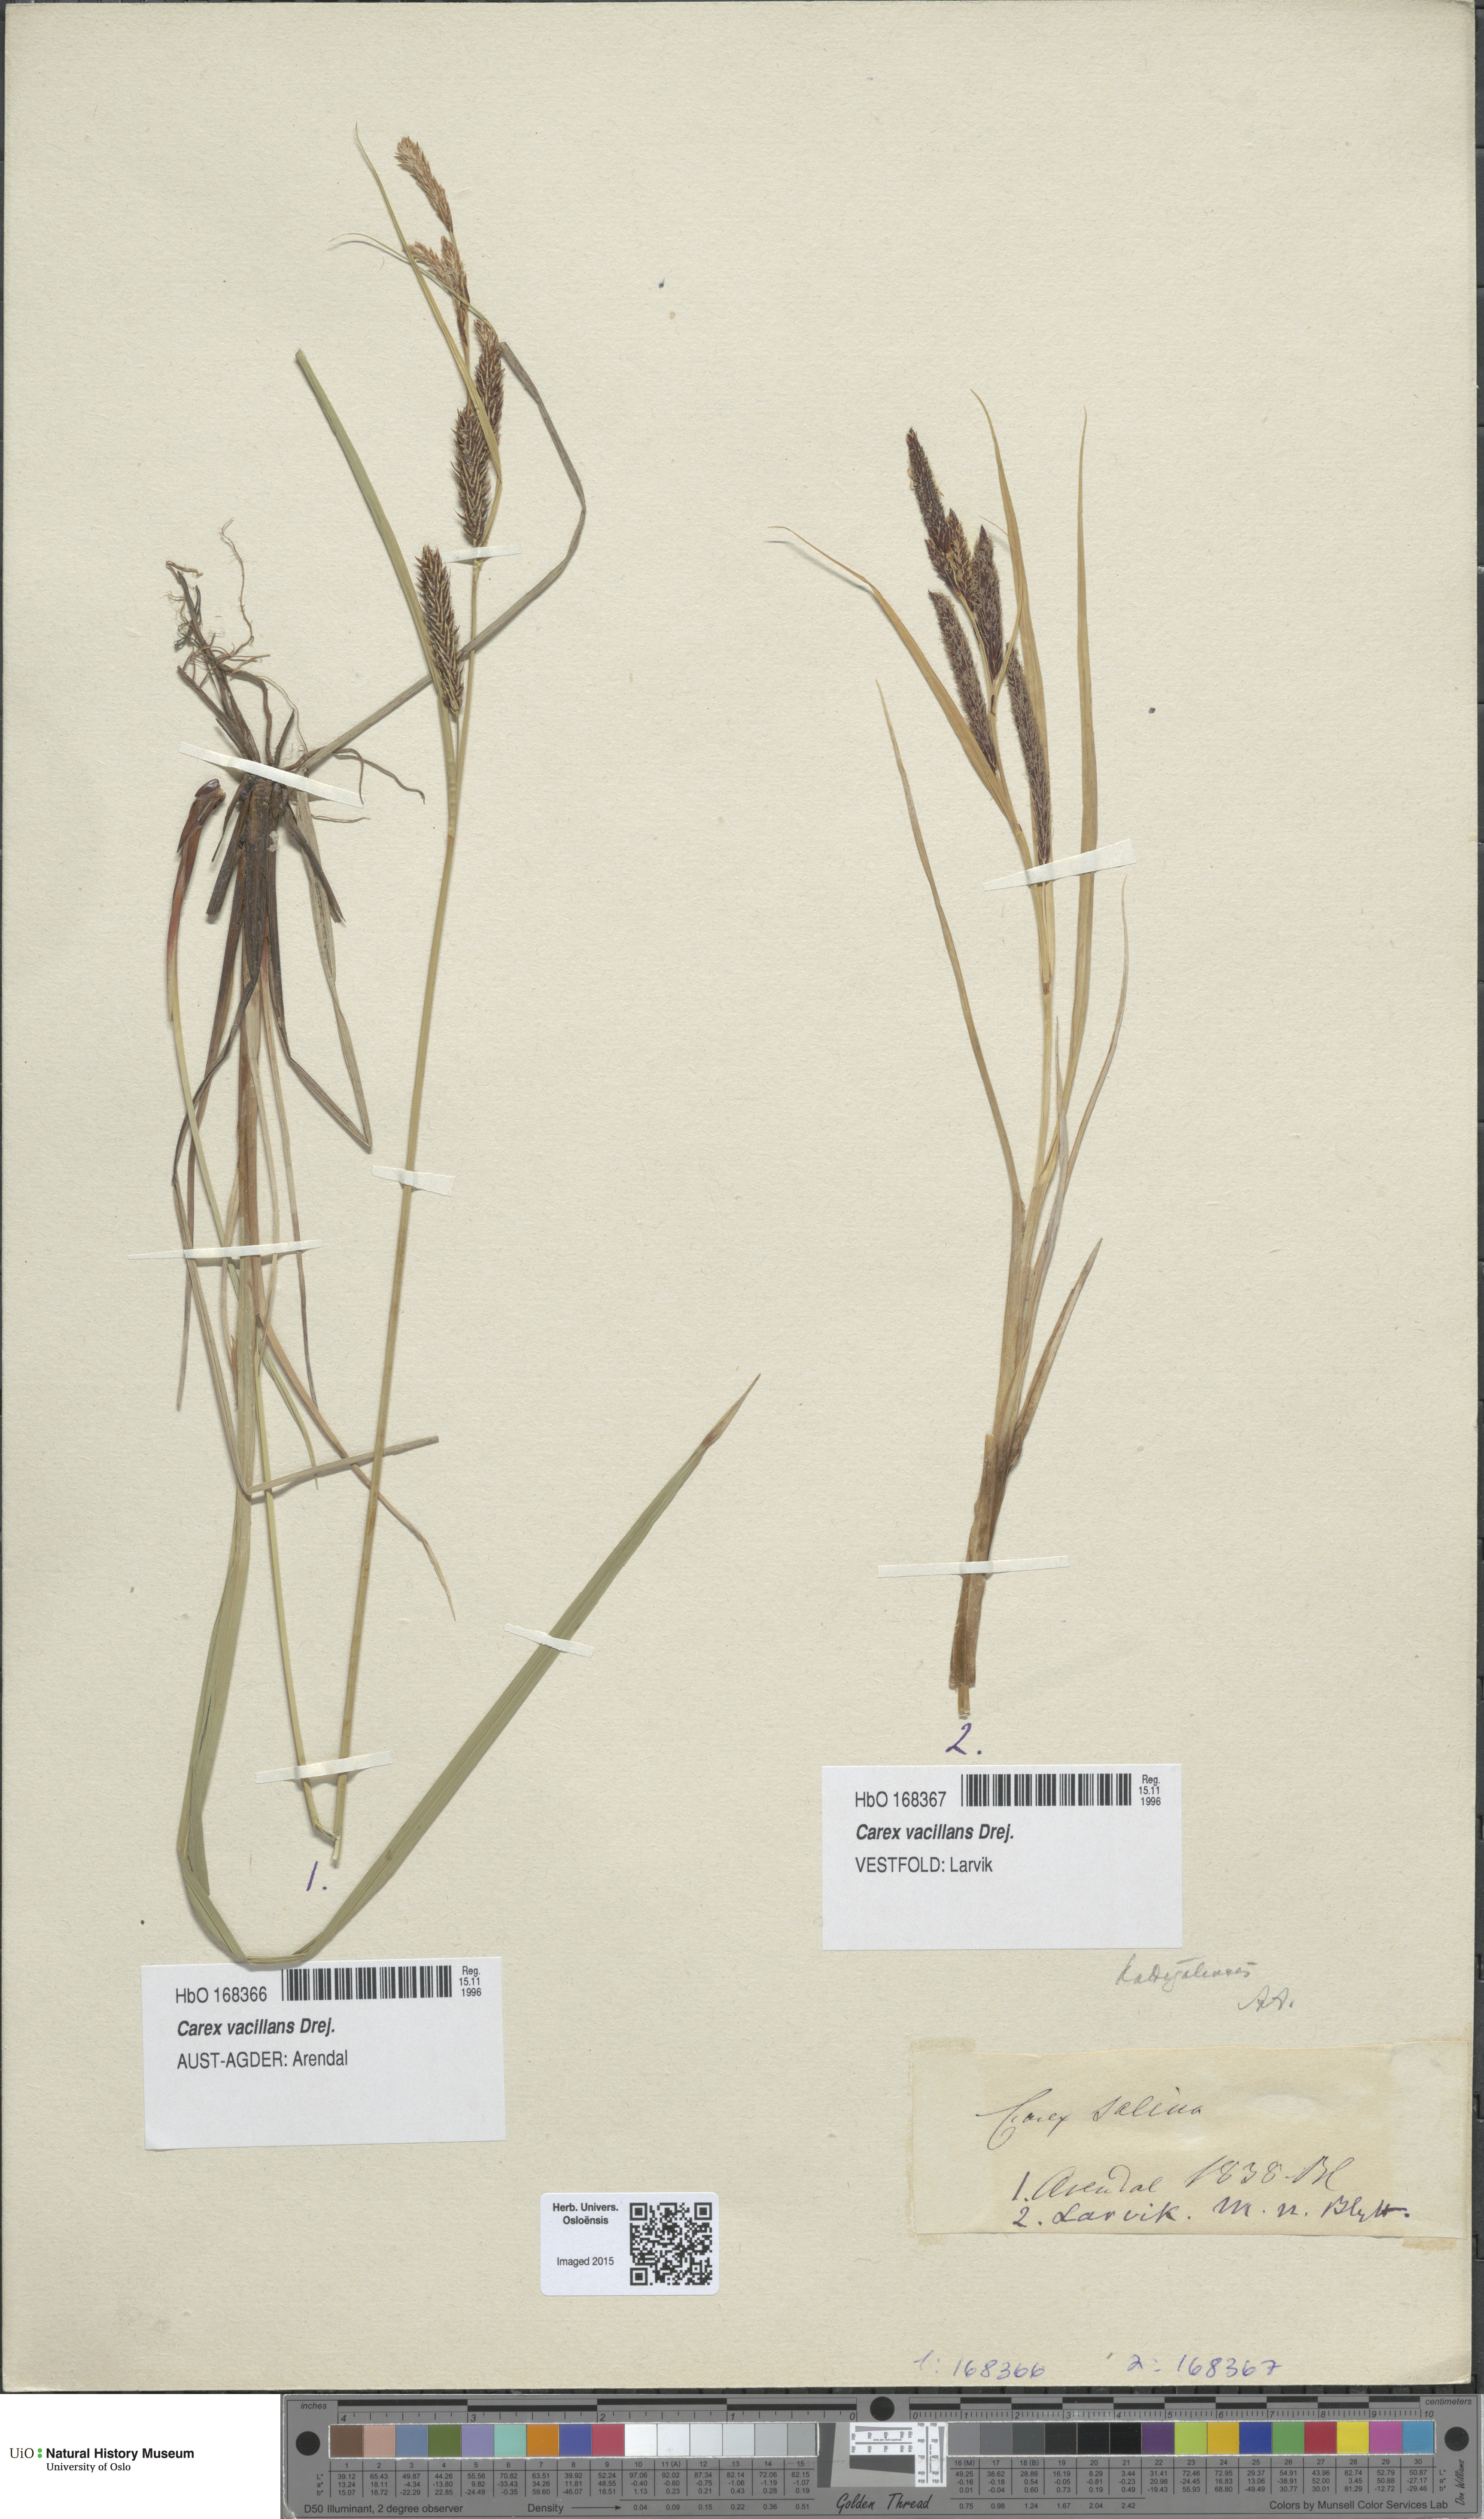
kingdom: Plantae
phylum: Tracheophyta
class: Liliopsida
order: Poales
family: Cyperaceae
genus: Carex
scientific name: Carex vacillans
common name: Sedge
